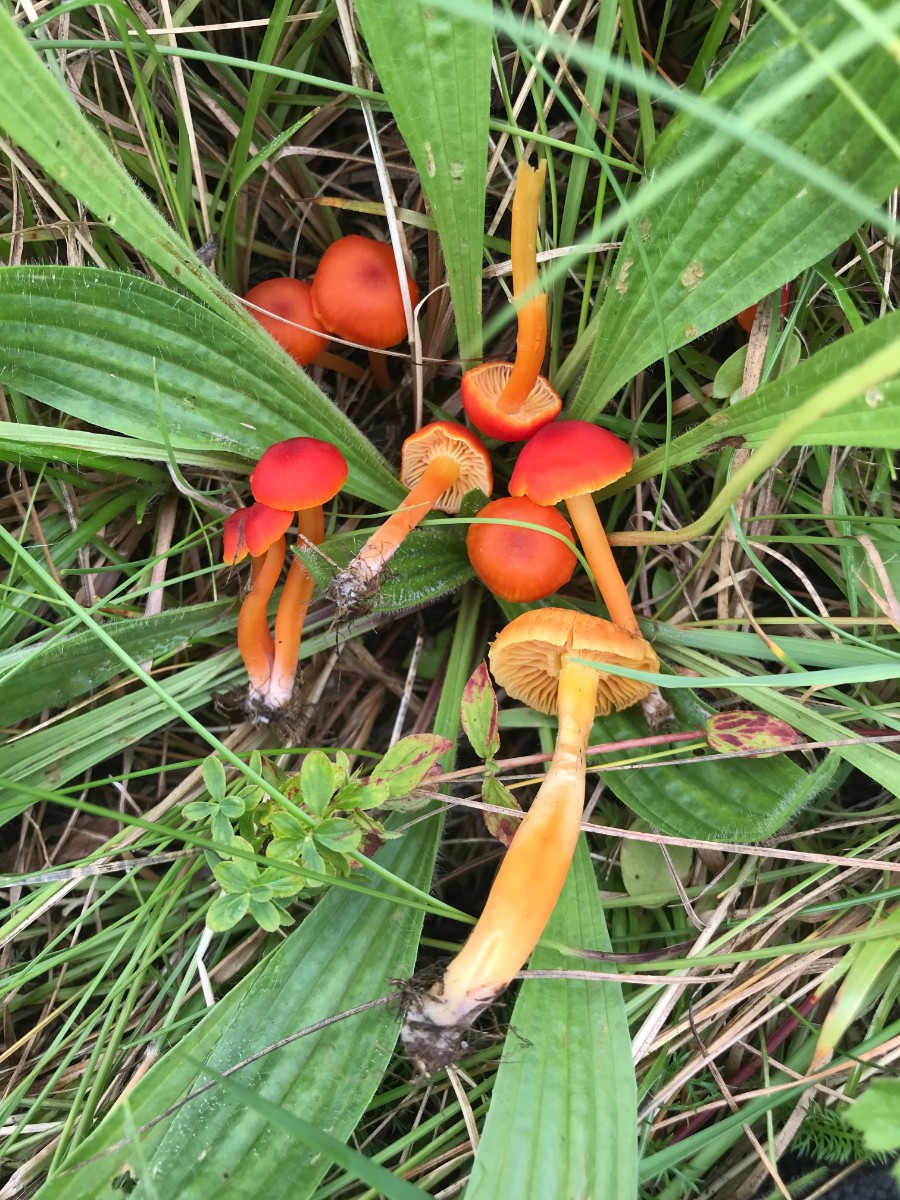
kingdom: Fungi
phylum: Basidiomycota
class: Agaricomycetes
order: Agaricales
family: Hygrophoraceae
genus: Hygrocybe
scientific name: Hygrocybe phaeococcinea
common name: sortdugget vokshat
